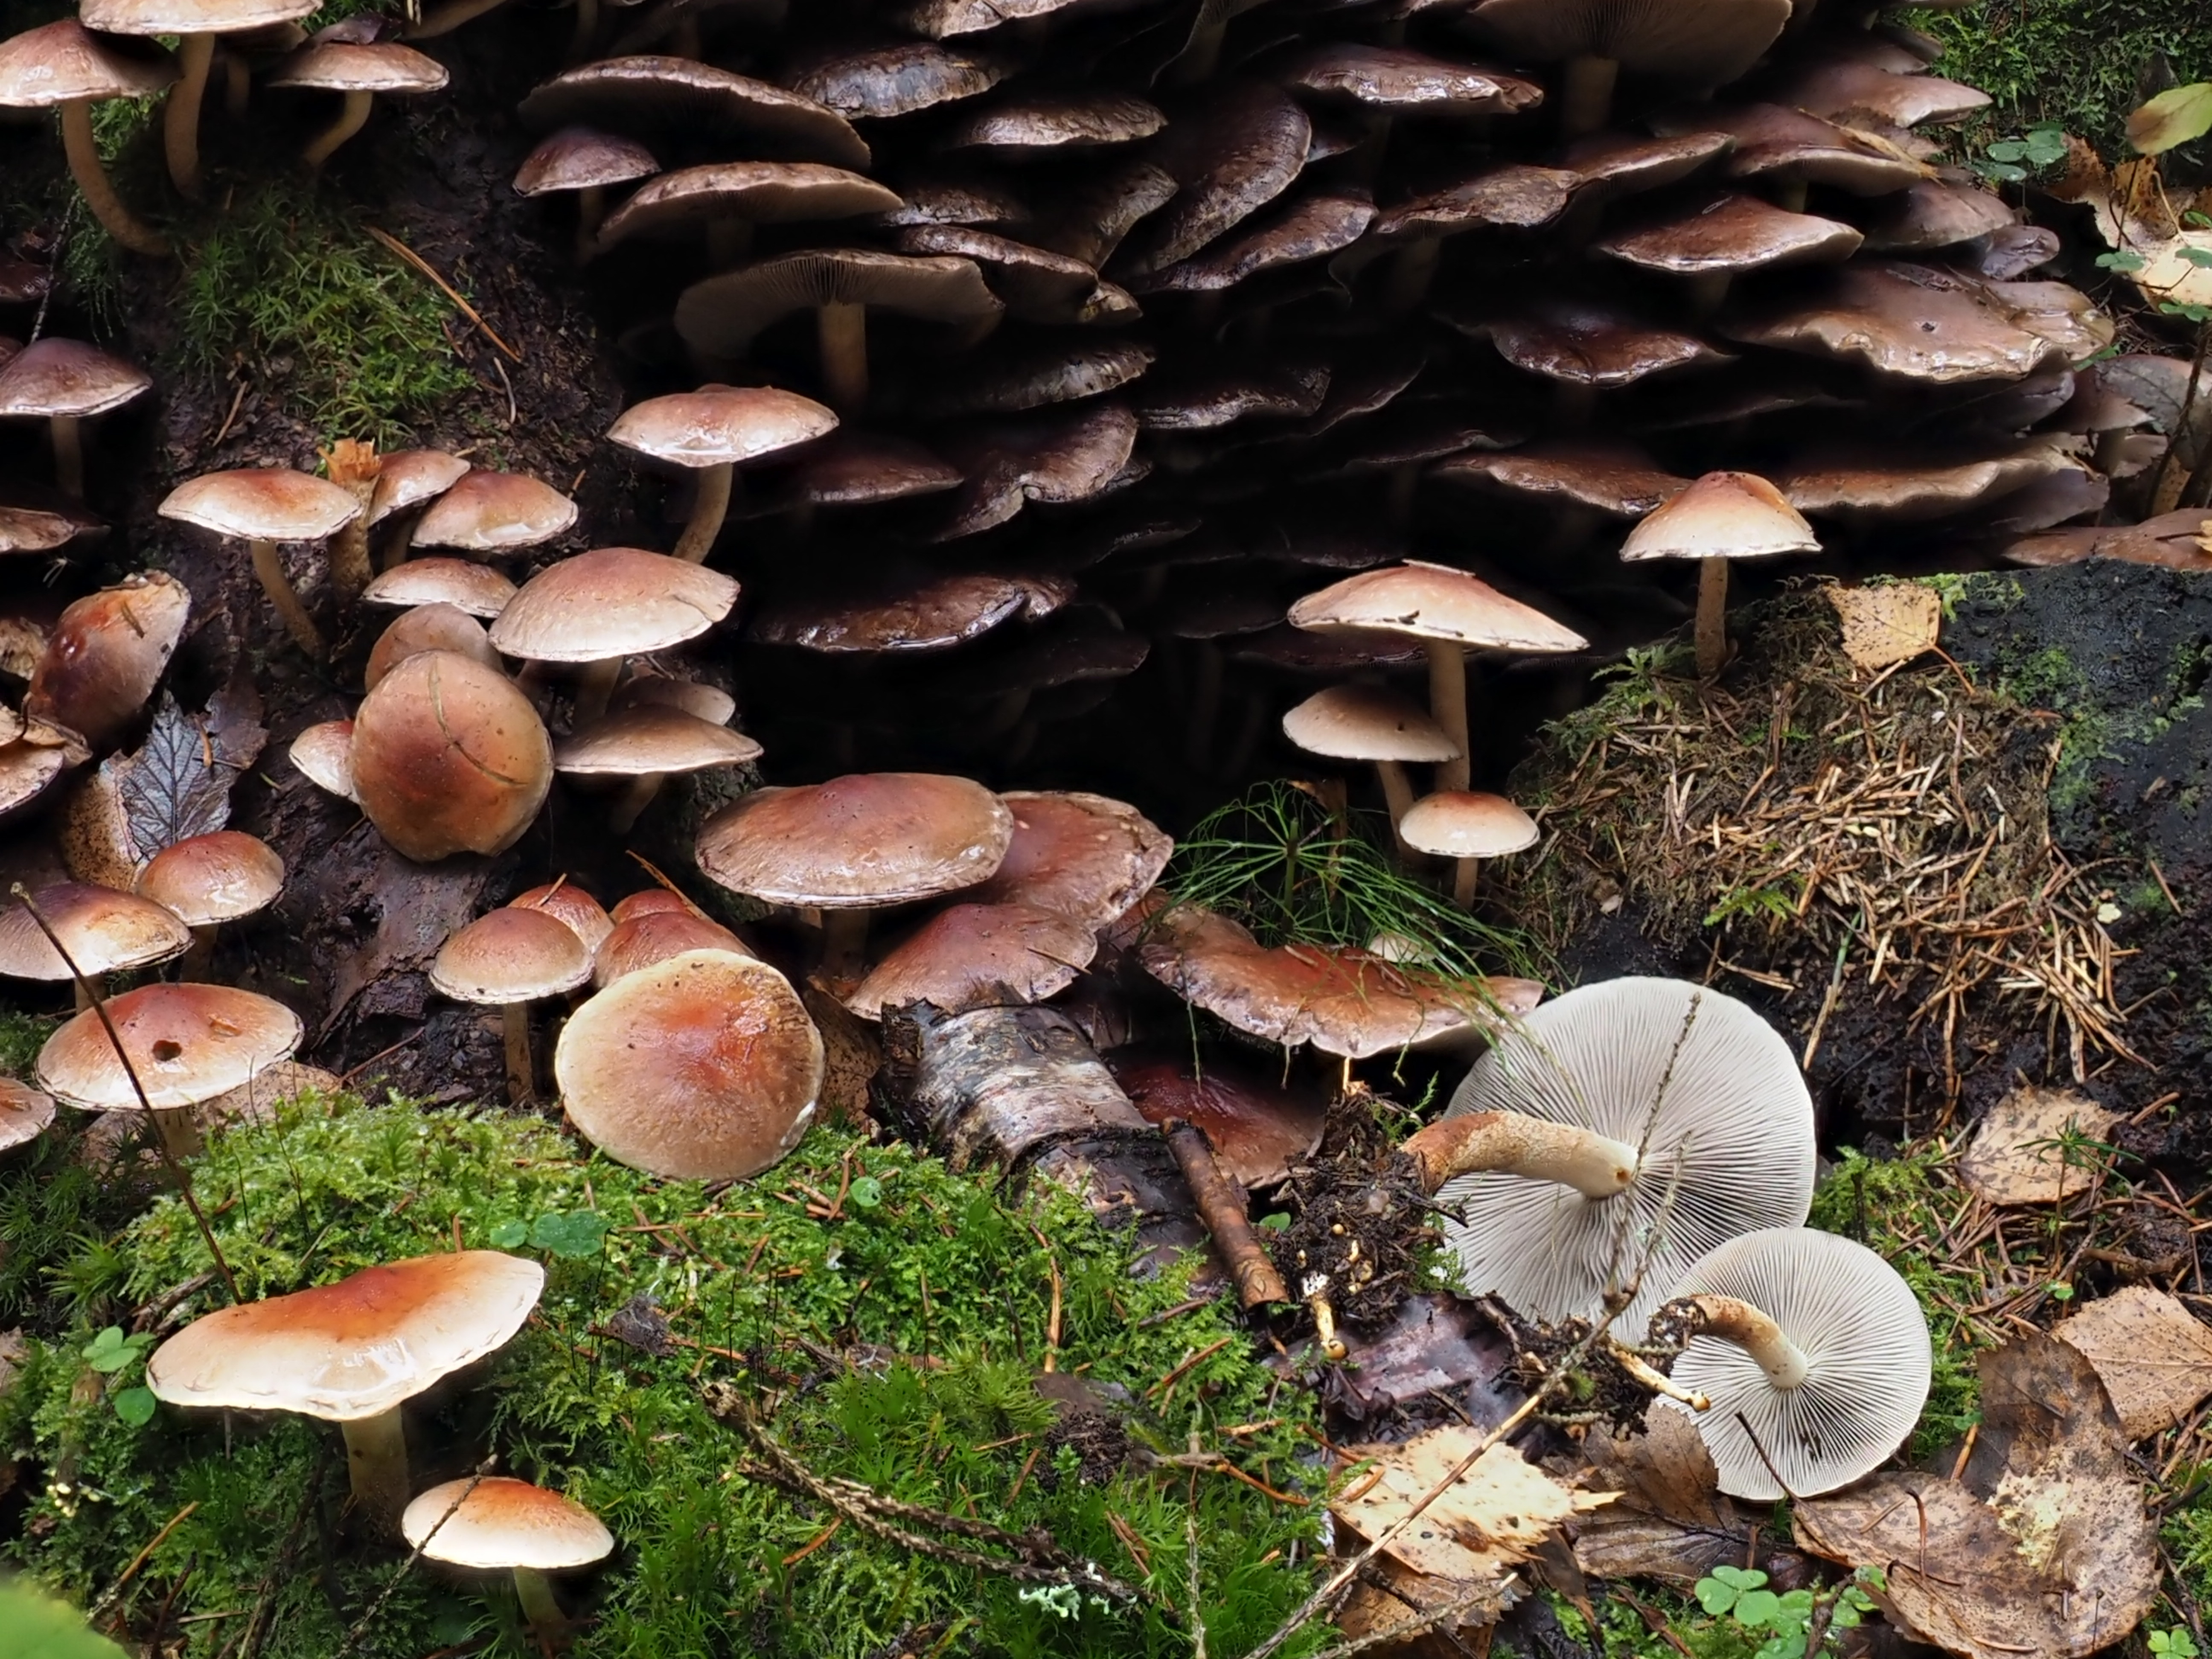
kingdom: Fungi
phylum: Basidiomycota
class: Agaricomycetes
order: Agaricales
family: Strophariaceae
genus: Hypholoma
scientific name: Hypholoma lateritium
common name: Brick caps
